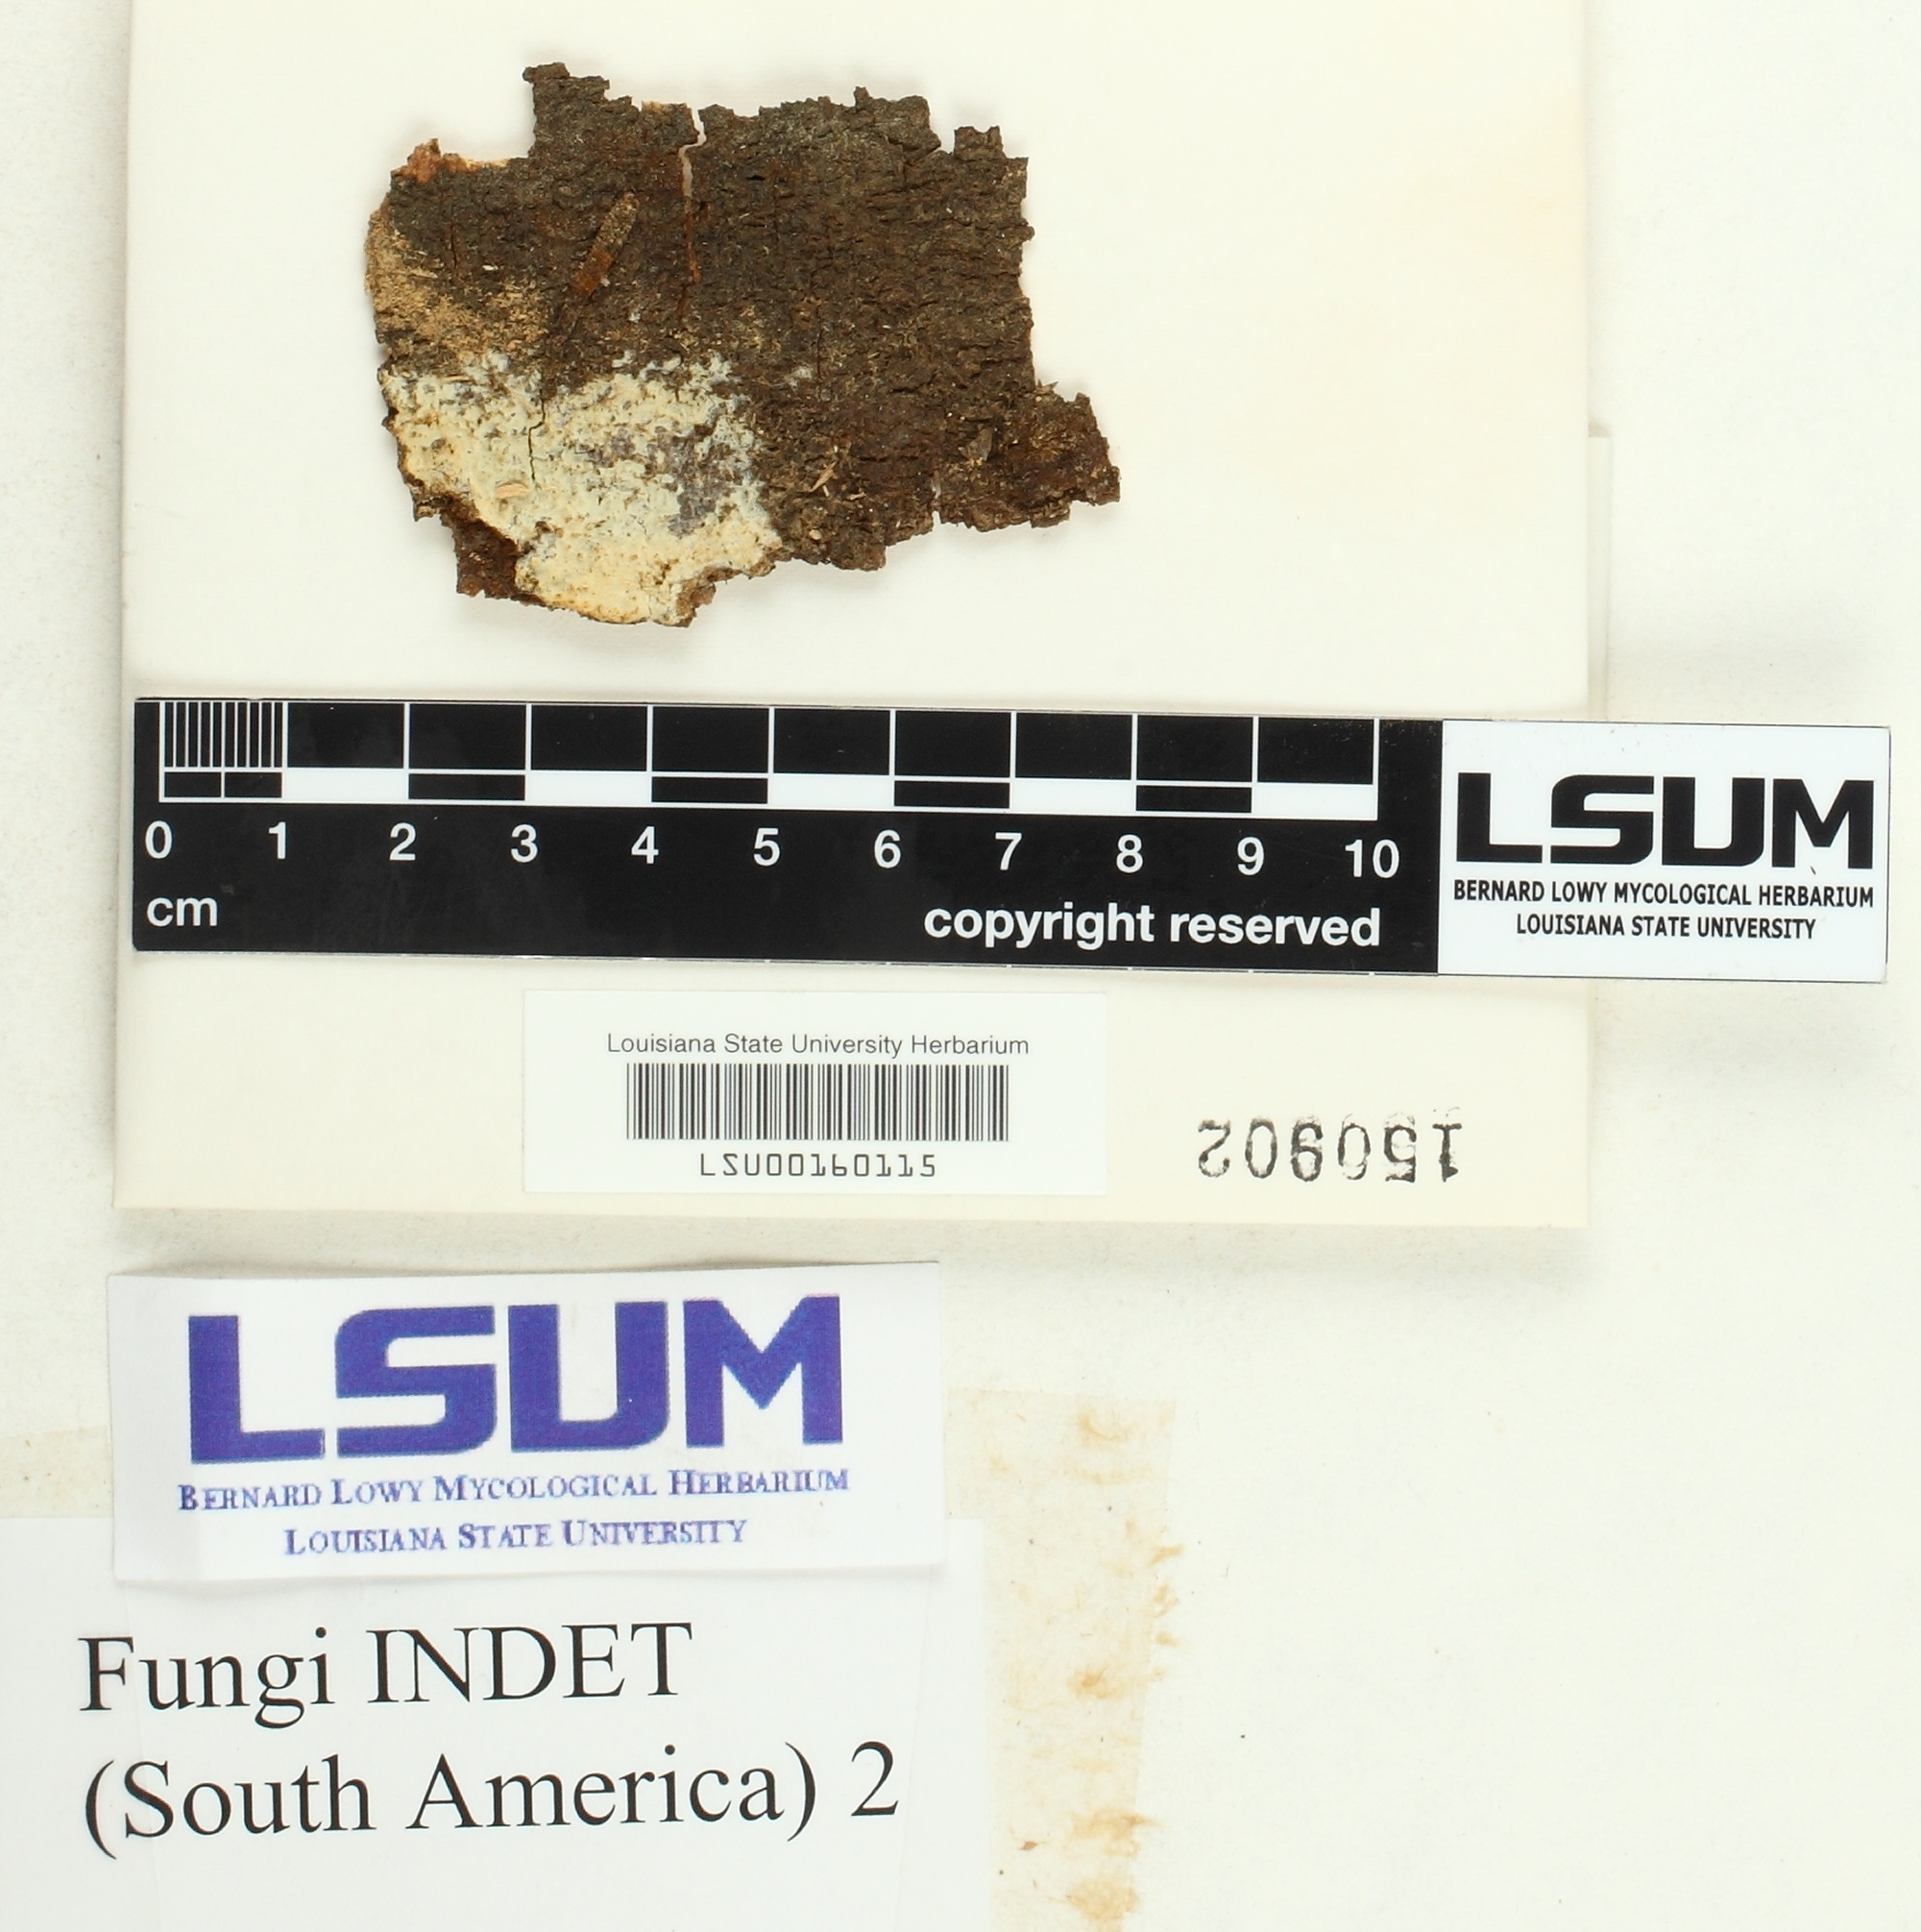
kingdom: Fungi
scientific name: Fungi
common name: Fungi
